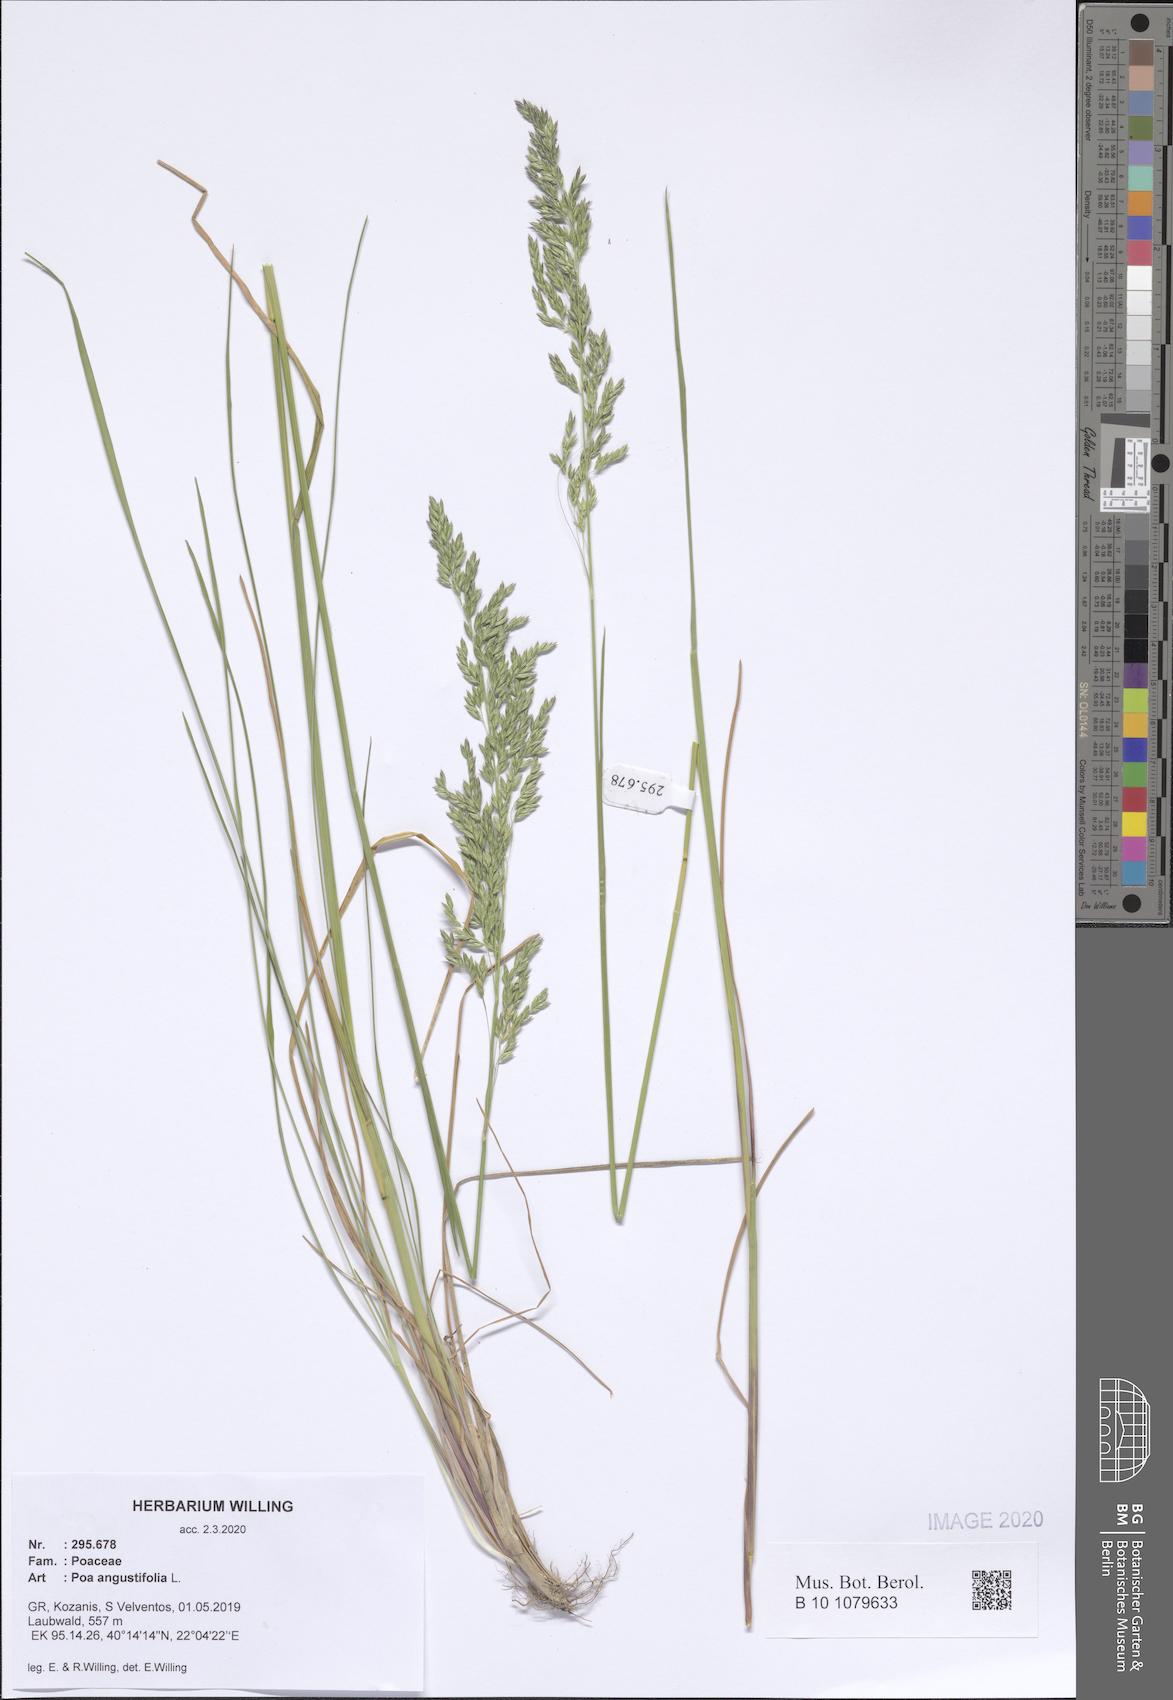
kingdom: Plantae
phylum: Tracheophyta
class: Liliopsida
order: Poales
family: Poaceae
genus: Poa
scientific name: Poa angustifolia
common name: Narrow-leaved meadow-grass
